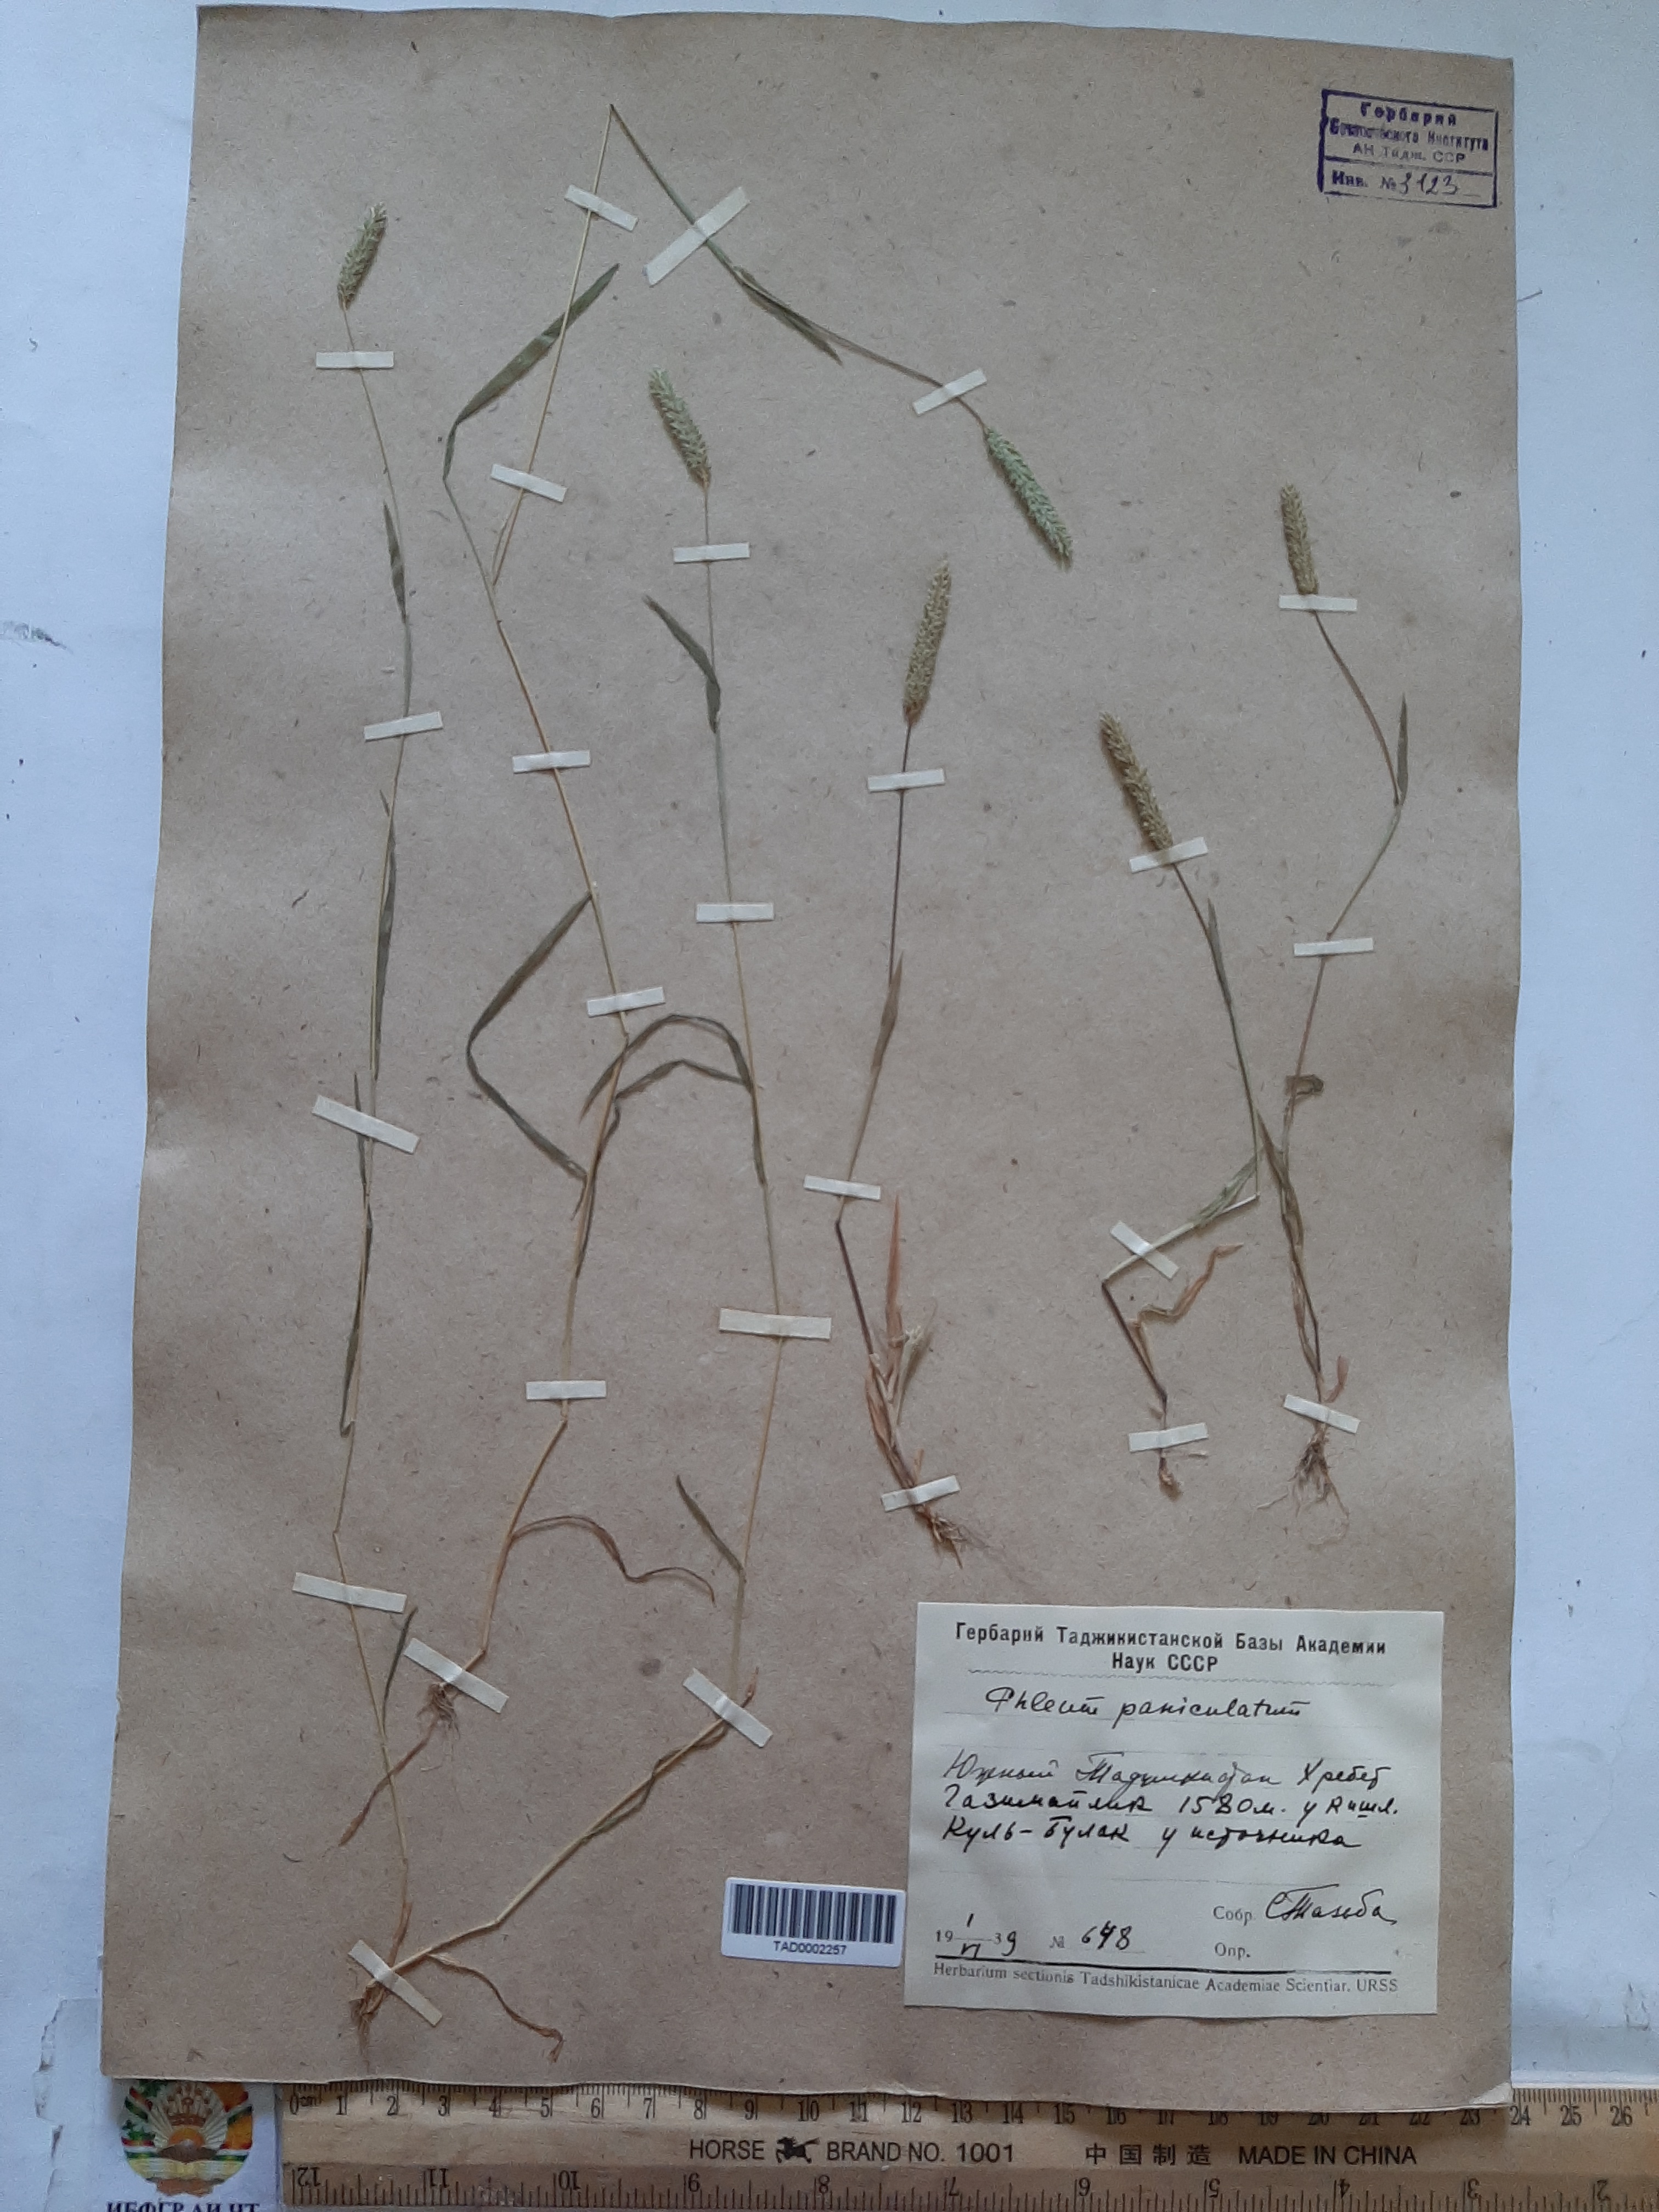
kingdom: Plantae
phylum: Tracheophyta
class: Liliopsida
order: Poales
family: Poaceae
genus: Phleum
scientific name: Phleum paniculatum
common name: British timothy
